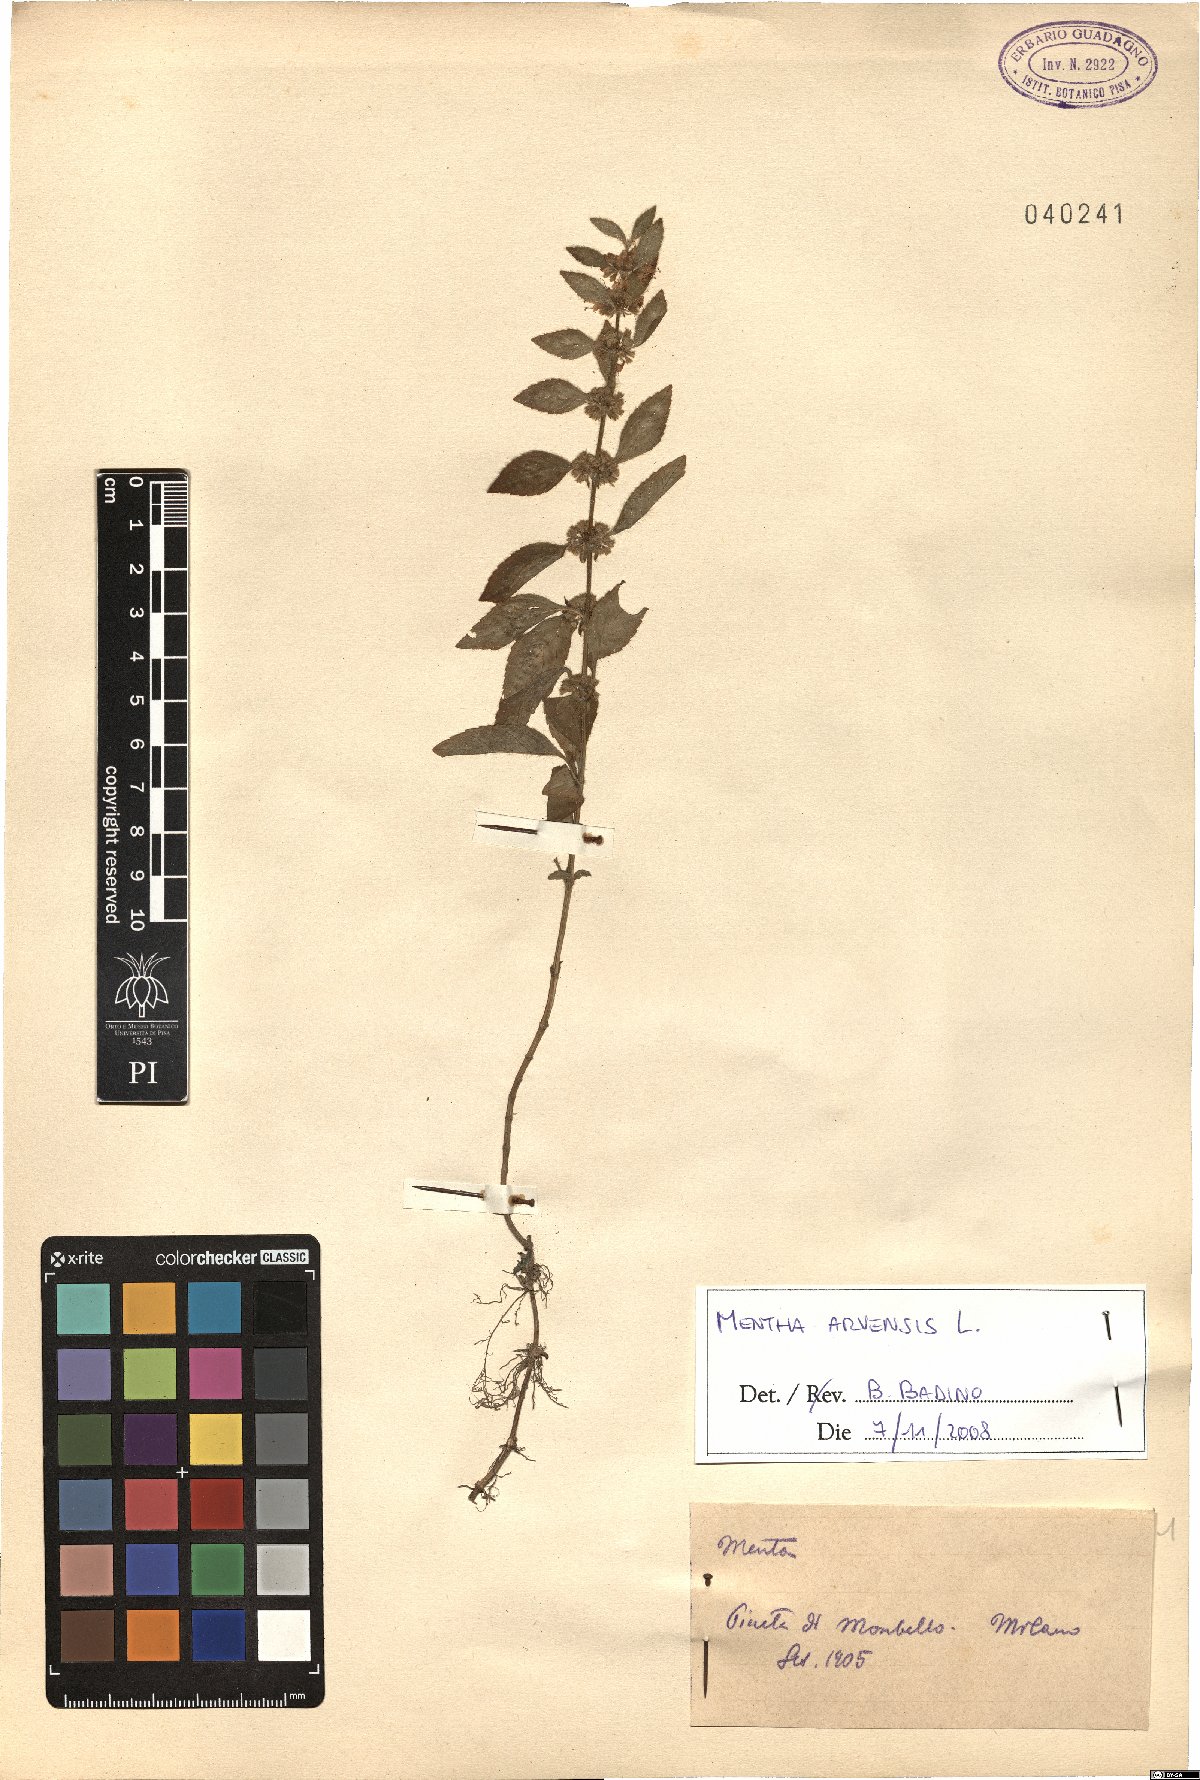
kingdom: Plantae
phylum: Tracheophyta
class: Magnoliopsida
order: Lamiales
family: Lamiaceae
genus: Mentha
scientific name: Mentha arvensis
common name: Corn mint
